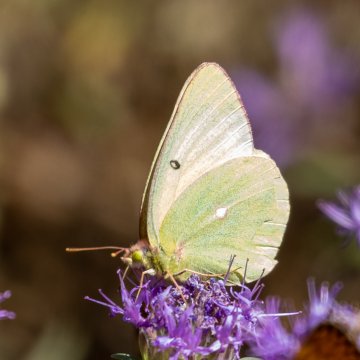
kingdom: Animalia
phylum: Arthropoda
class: Insecta
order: Lepidoptera
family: Pieridae
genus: Colias
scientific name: Colias alexandra
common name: Queen Alexandra's Sulphur
